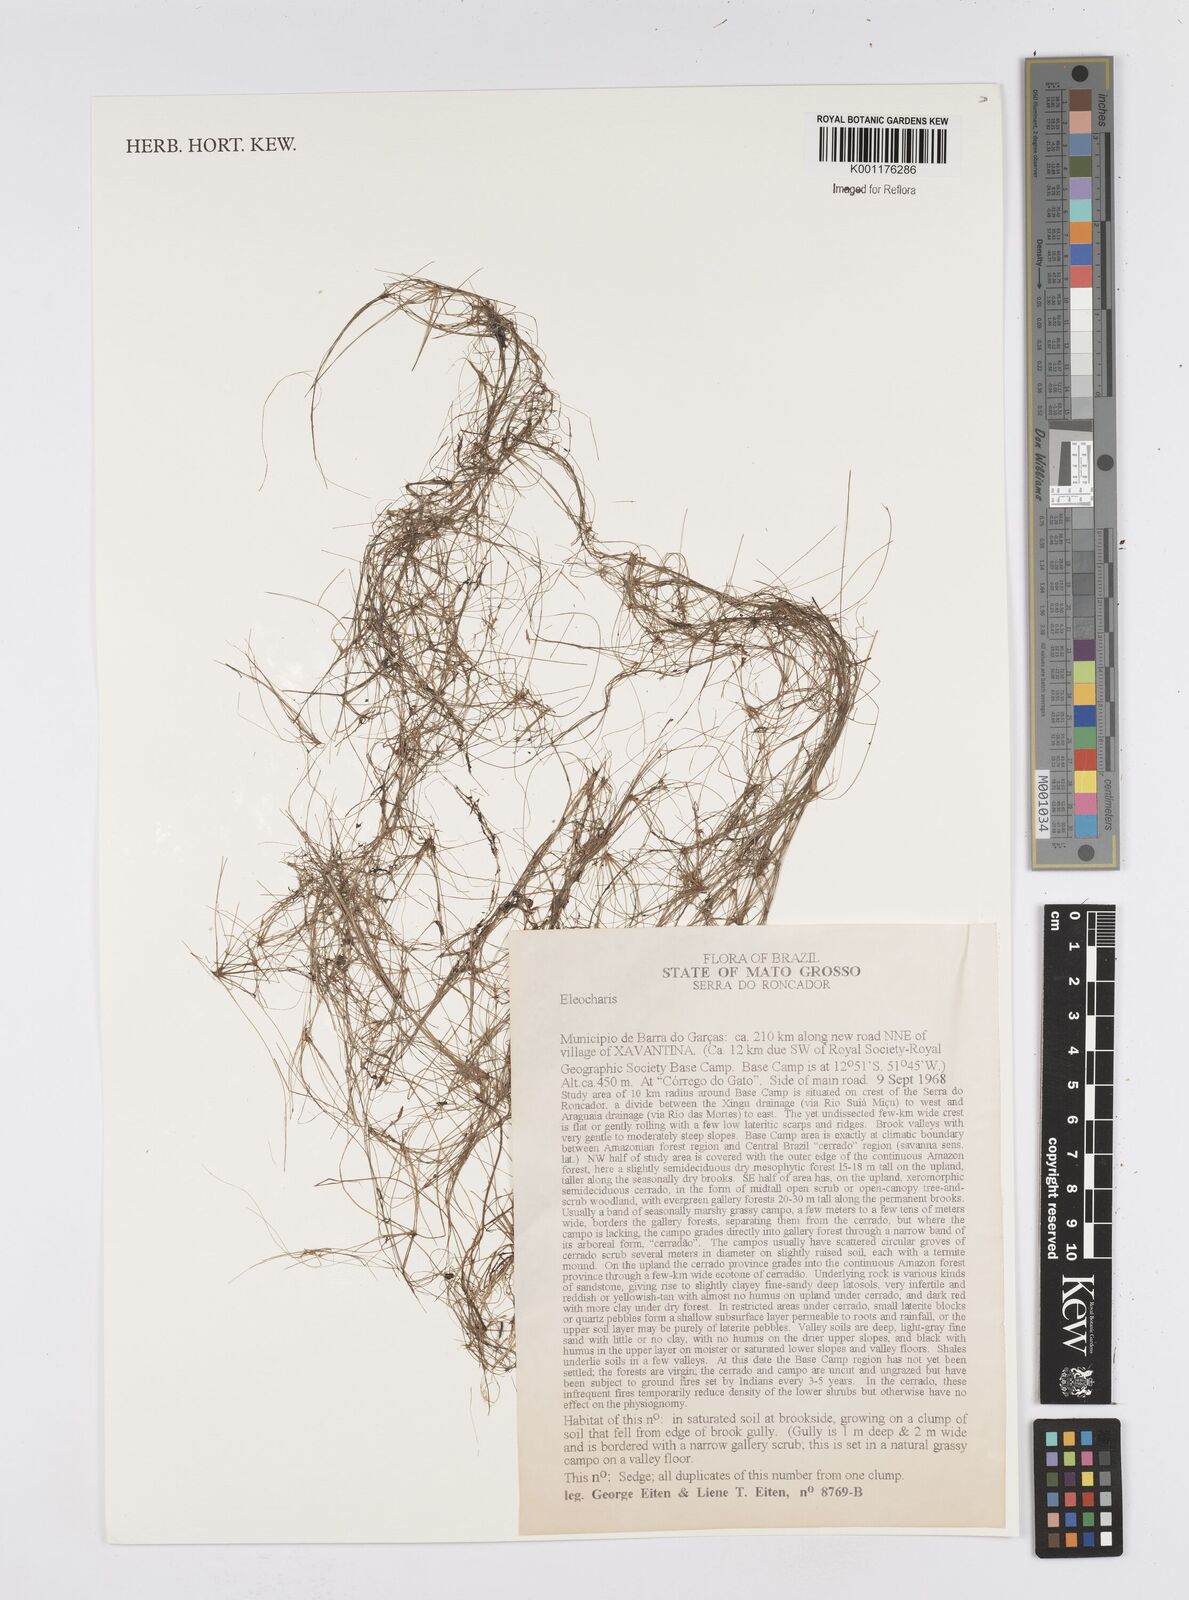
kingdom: Plantae
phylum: Tracheophyta
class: Liliopsida
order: Poales
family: Cyperaceae
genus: Eleocharis
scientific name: Eleocharis
